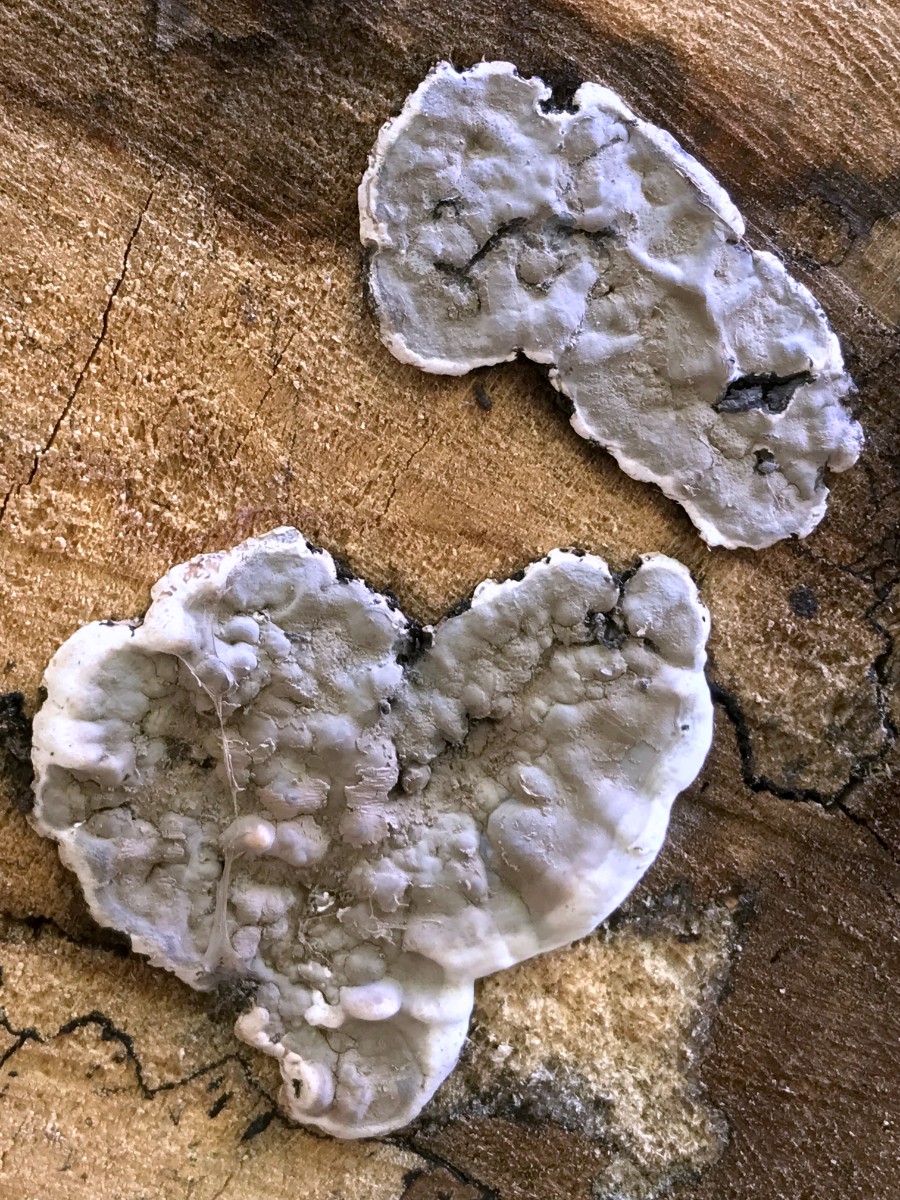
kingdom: Fungi
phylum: Ascomycota
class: Sordariomycetes
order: Xylariales
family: Xylariaceae
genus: Kretzschmaria
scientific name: Kretzschmaria deusta
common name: stor kulsvamp
